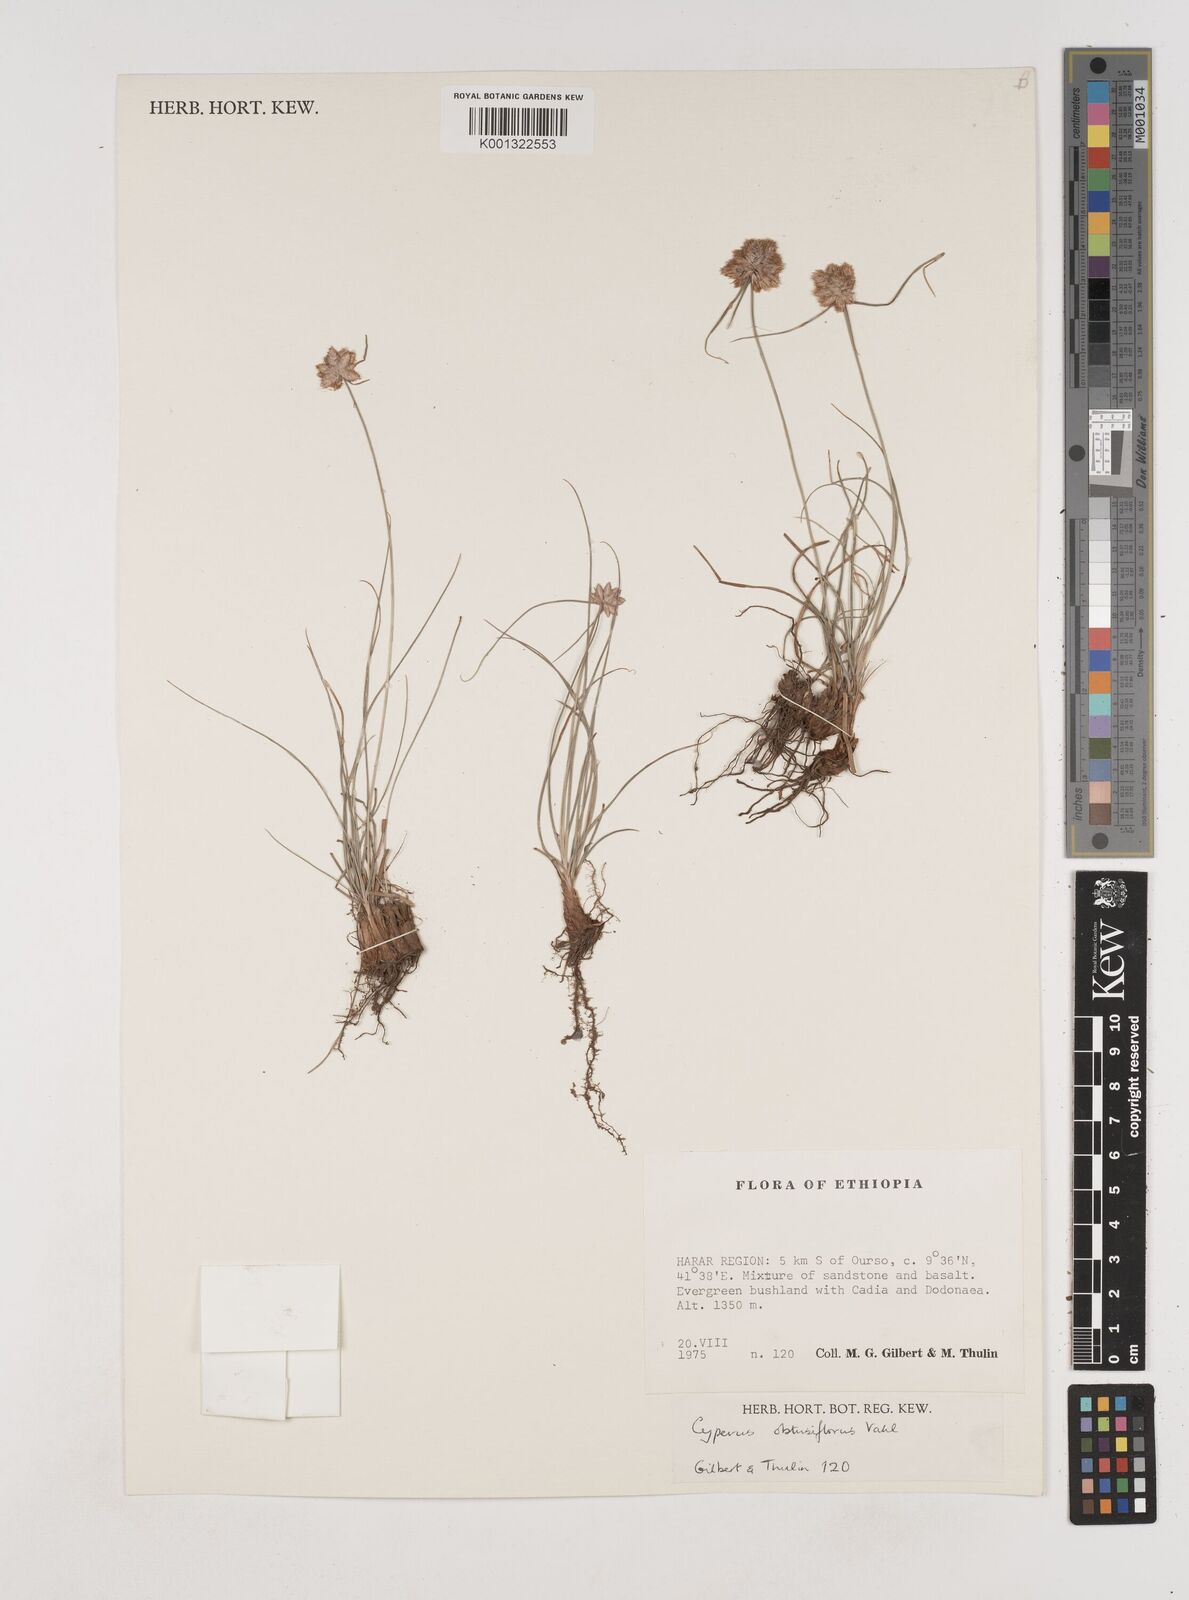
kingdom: Plantae
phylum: Tracheophyta
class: Liliopsida
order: Poales
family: Cyperaceae
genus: Cyperus
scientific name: Cyperus niveus
